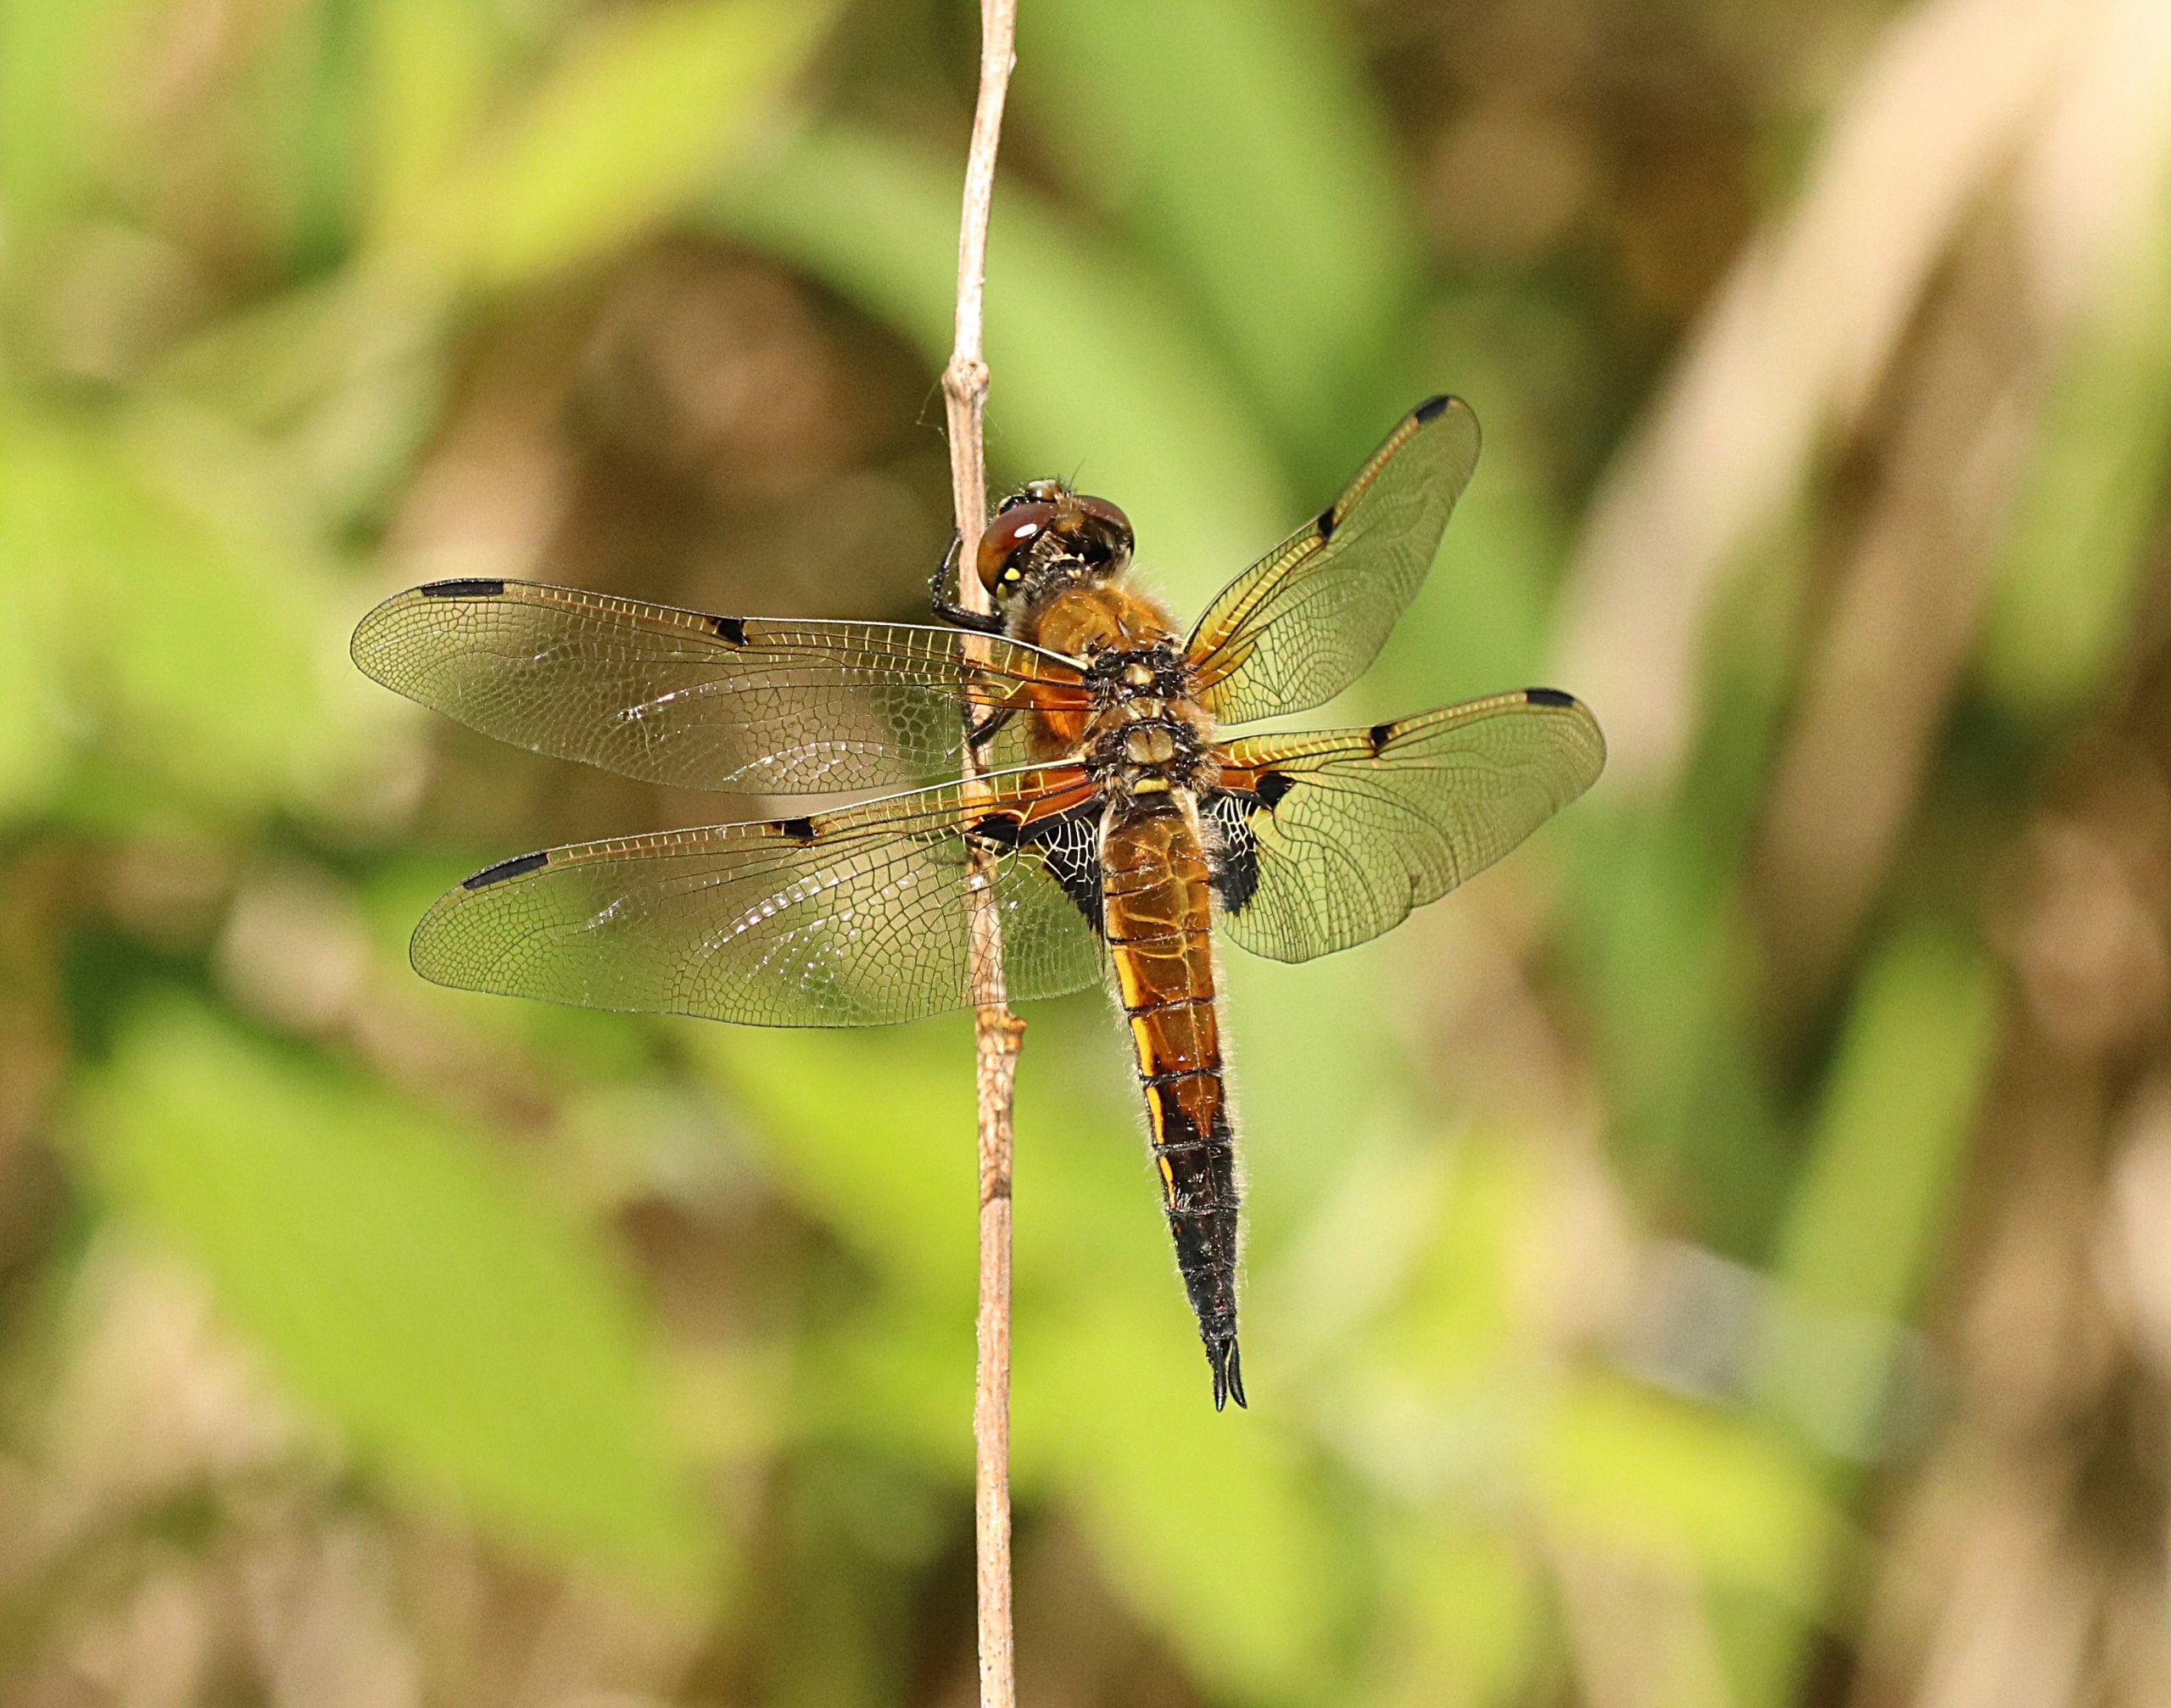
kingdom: Animalia
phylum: Arthropoda
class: Insecta
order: Odonata
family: Libellulidae
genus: Libellula
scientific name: Libellula quadrimaculata
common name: Fireplettet libel
